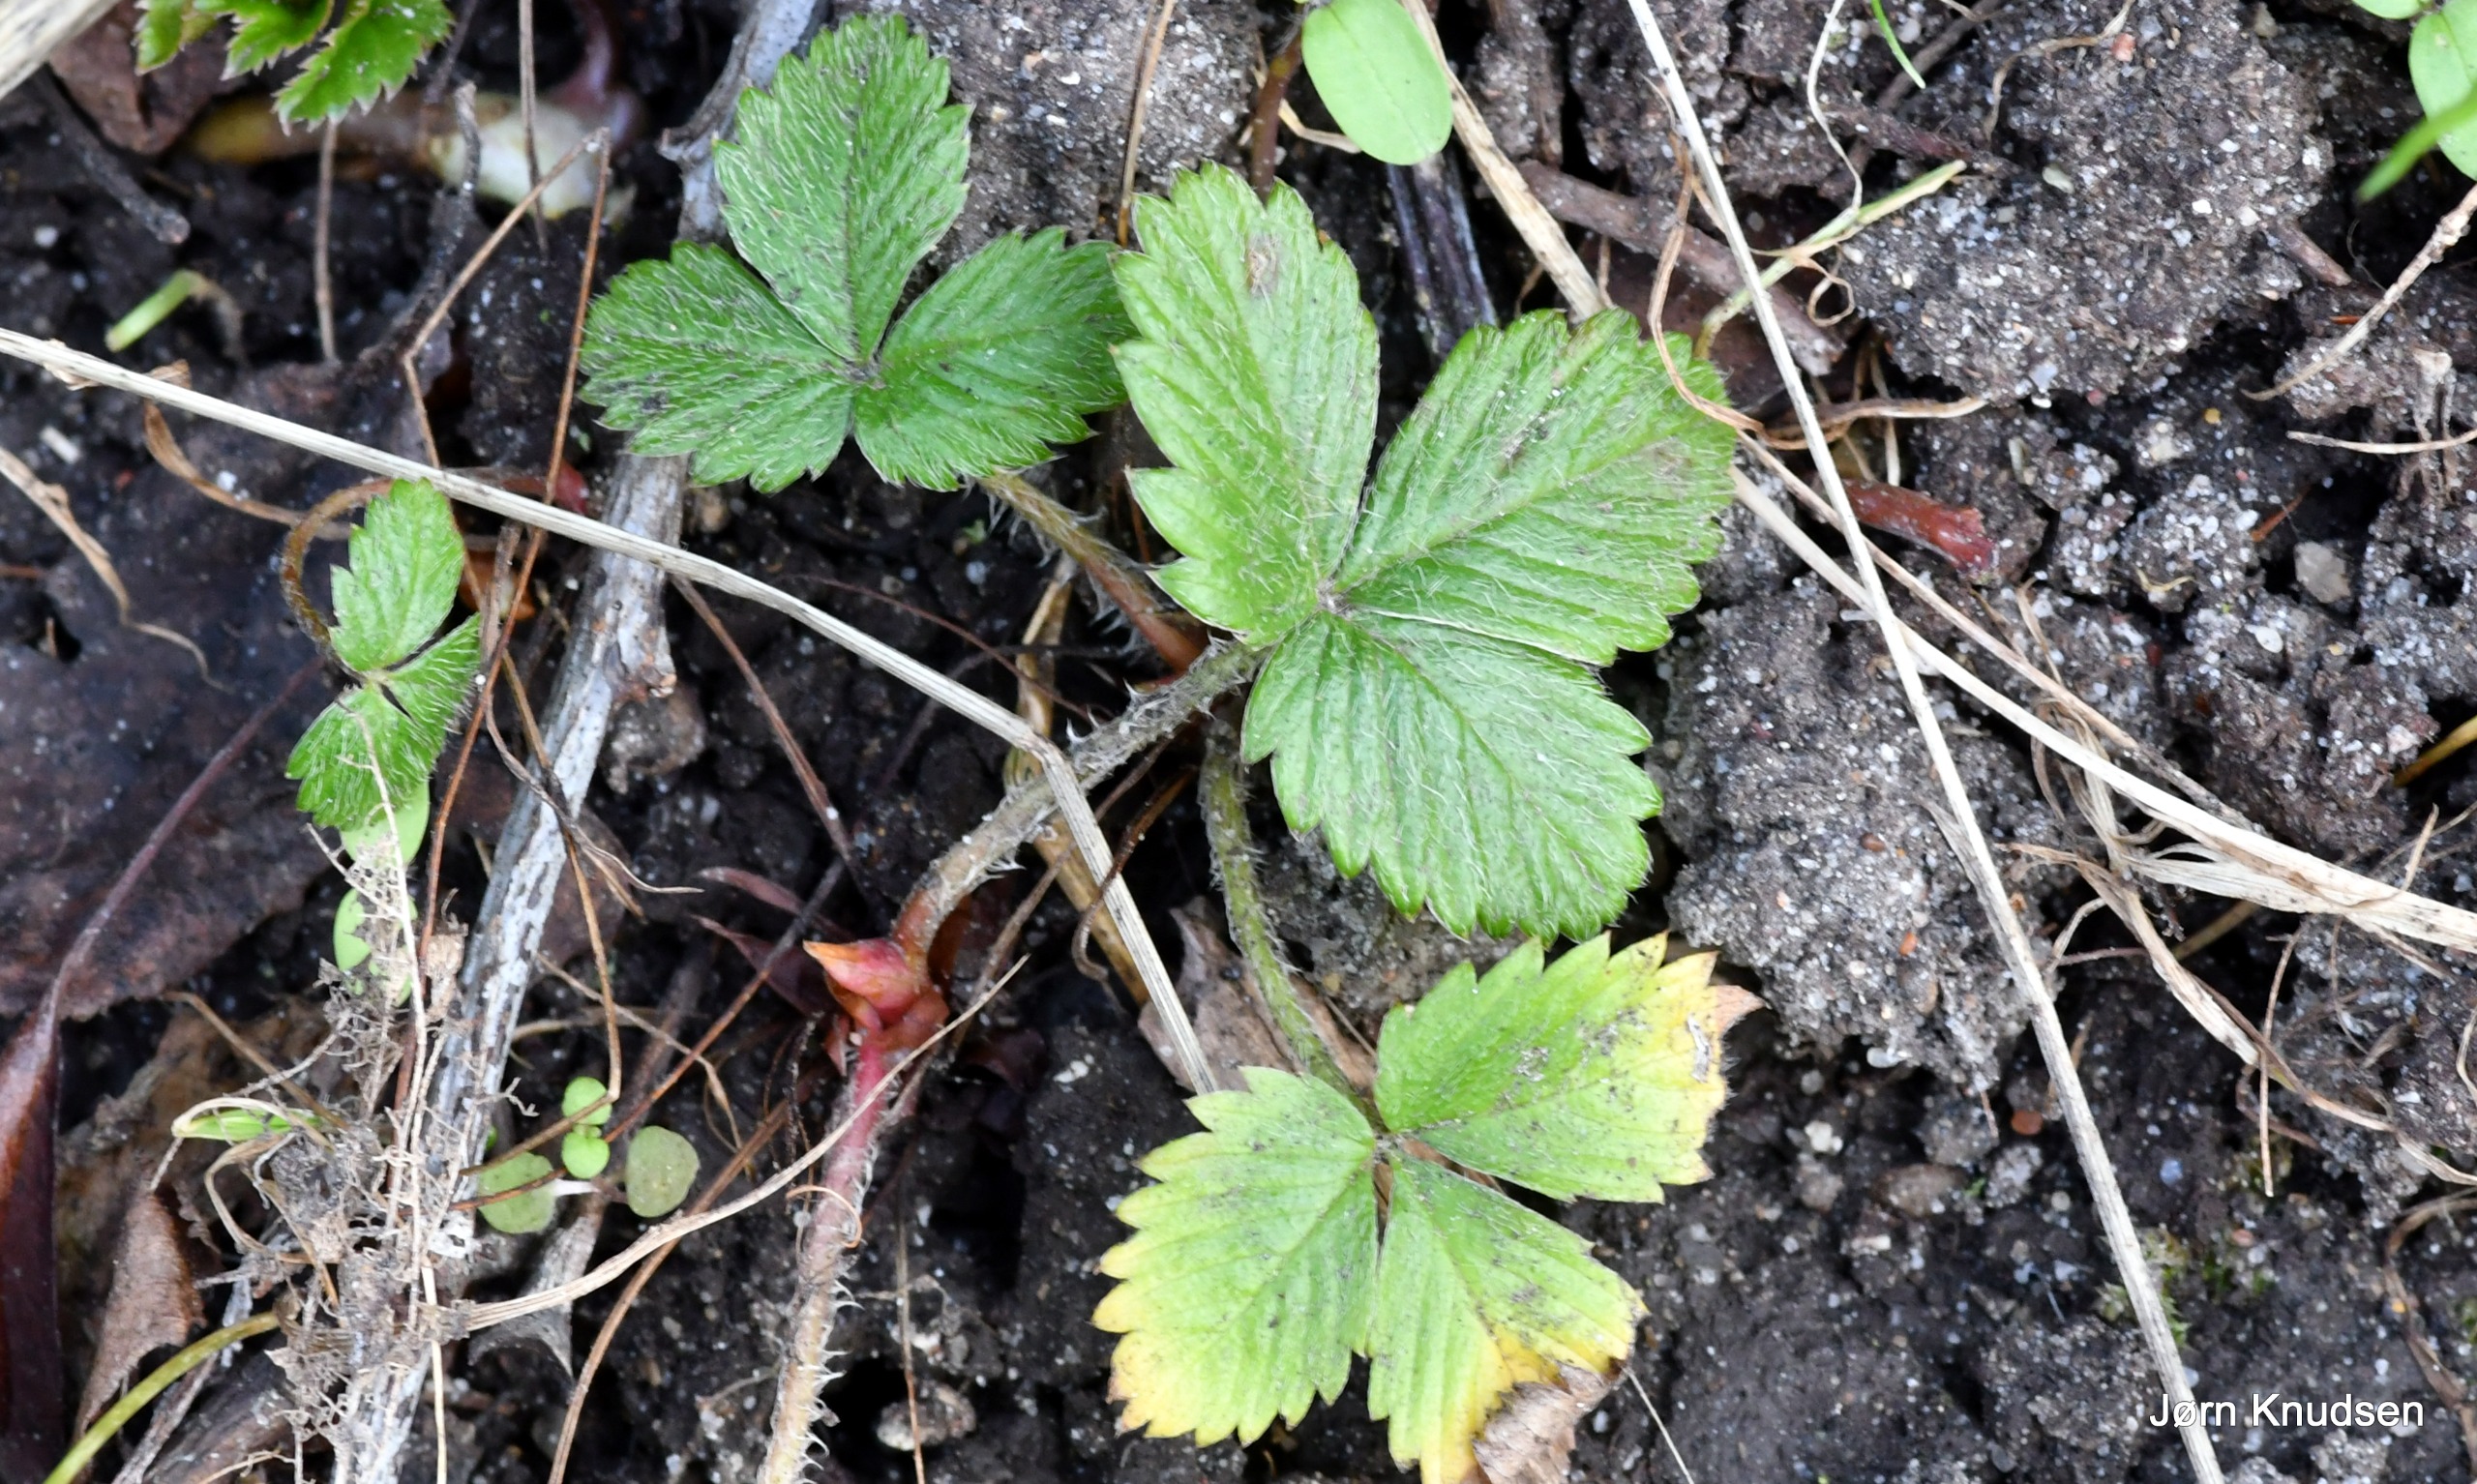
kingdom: Plantae
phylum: Tracheophyta
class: Magnoliopsida
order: Rosales
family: Rosaceae
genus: Fragaria
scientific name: Fragaria vesca
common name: Skov-jordbær
